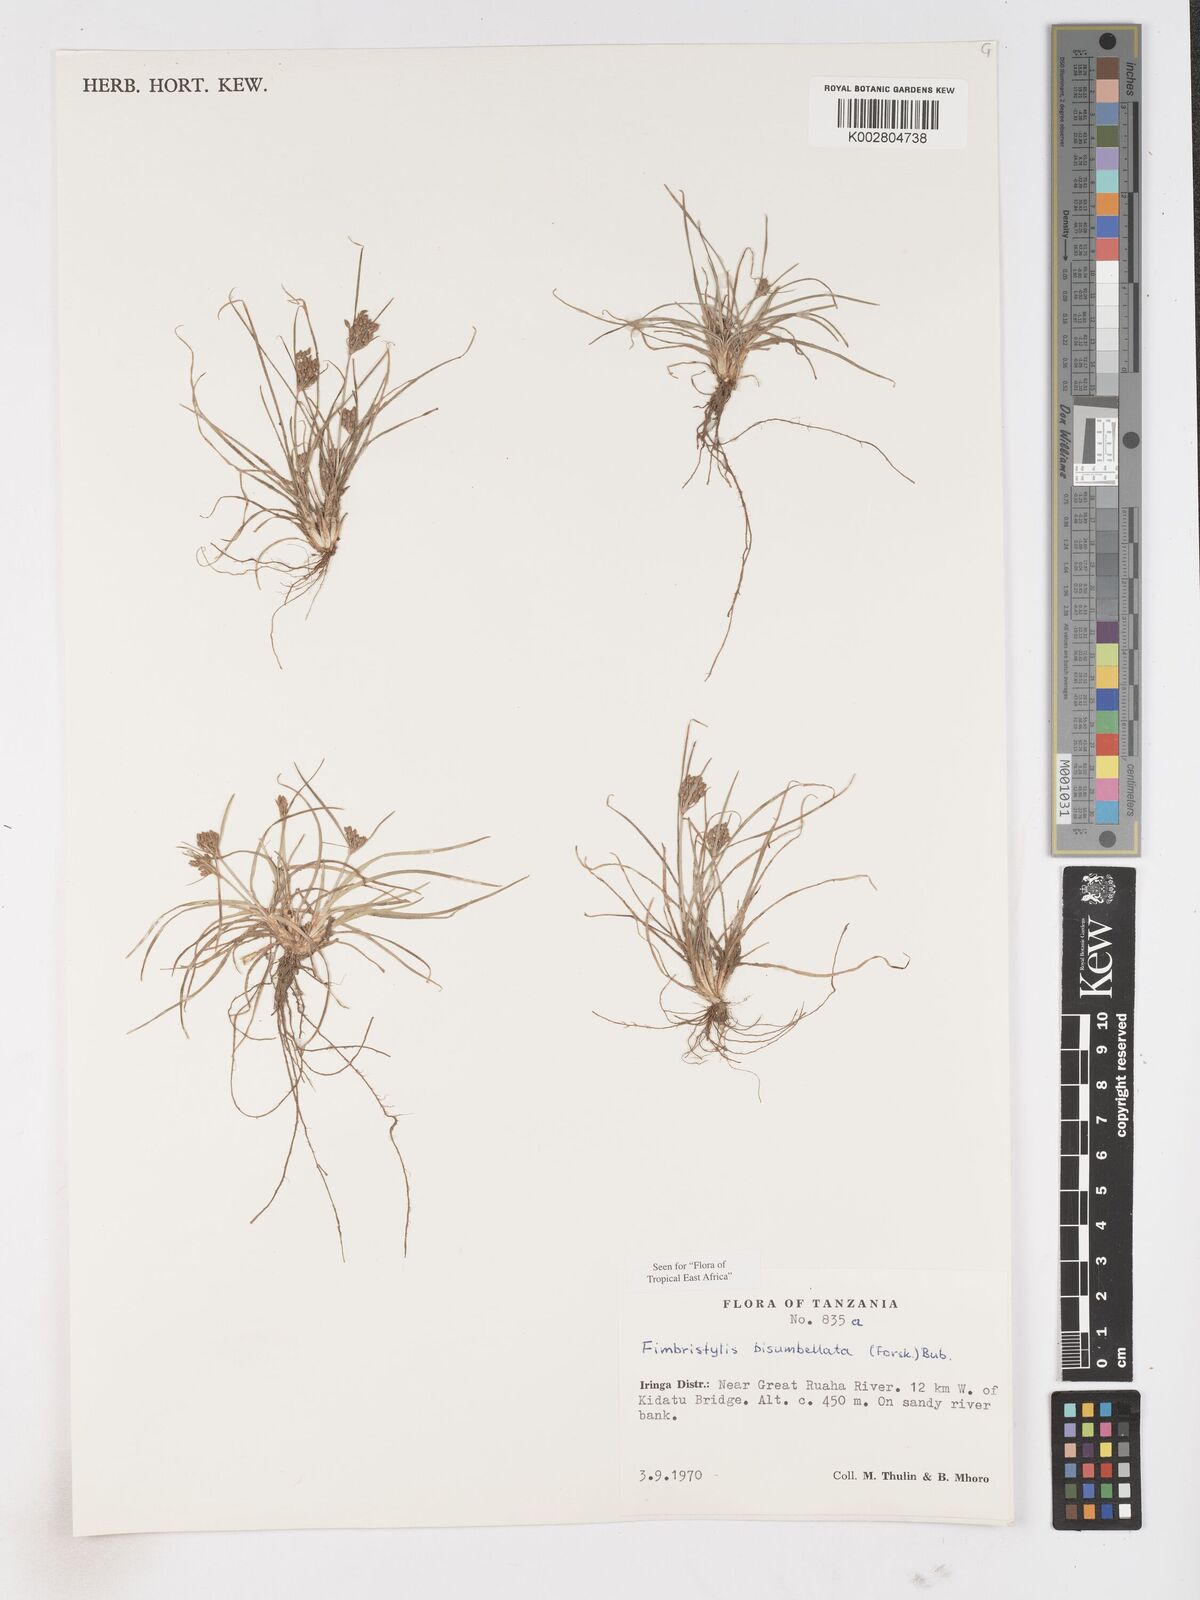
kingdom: Plantae
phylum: Tracheophyta
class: Liliopsida
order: Poales
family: Cyperaceae
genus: Fimbristylis
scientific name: Fimbristylis bisumbellata
